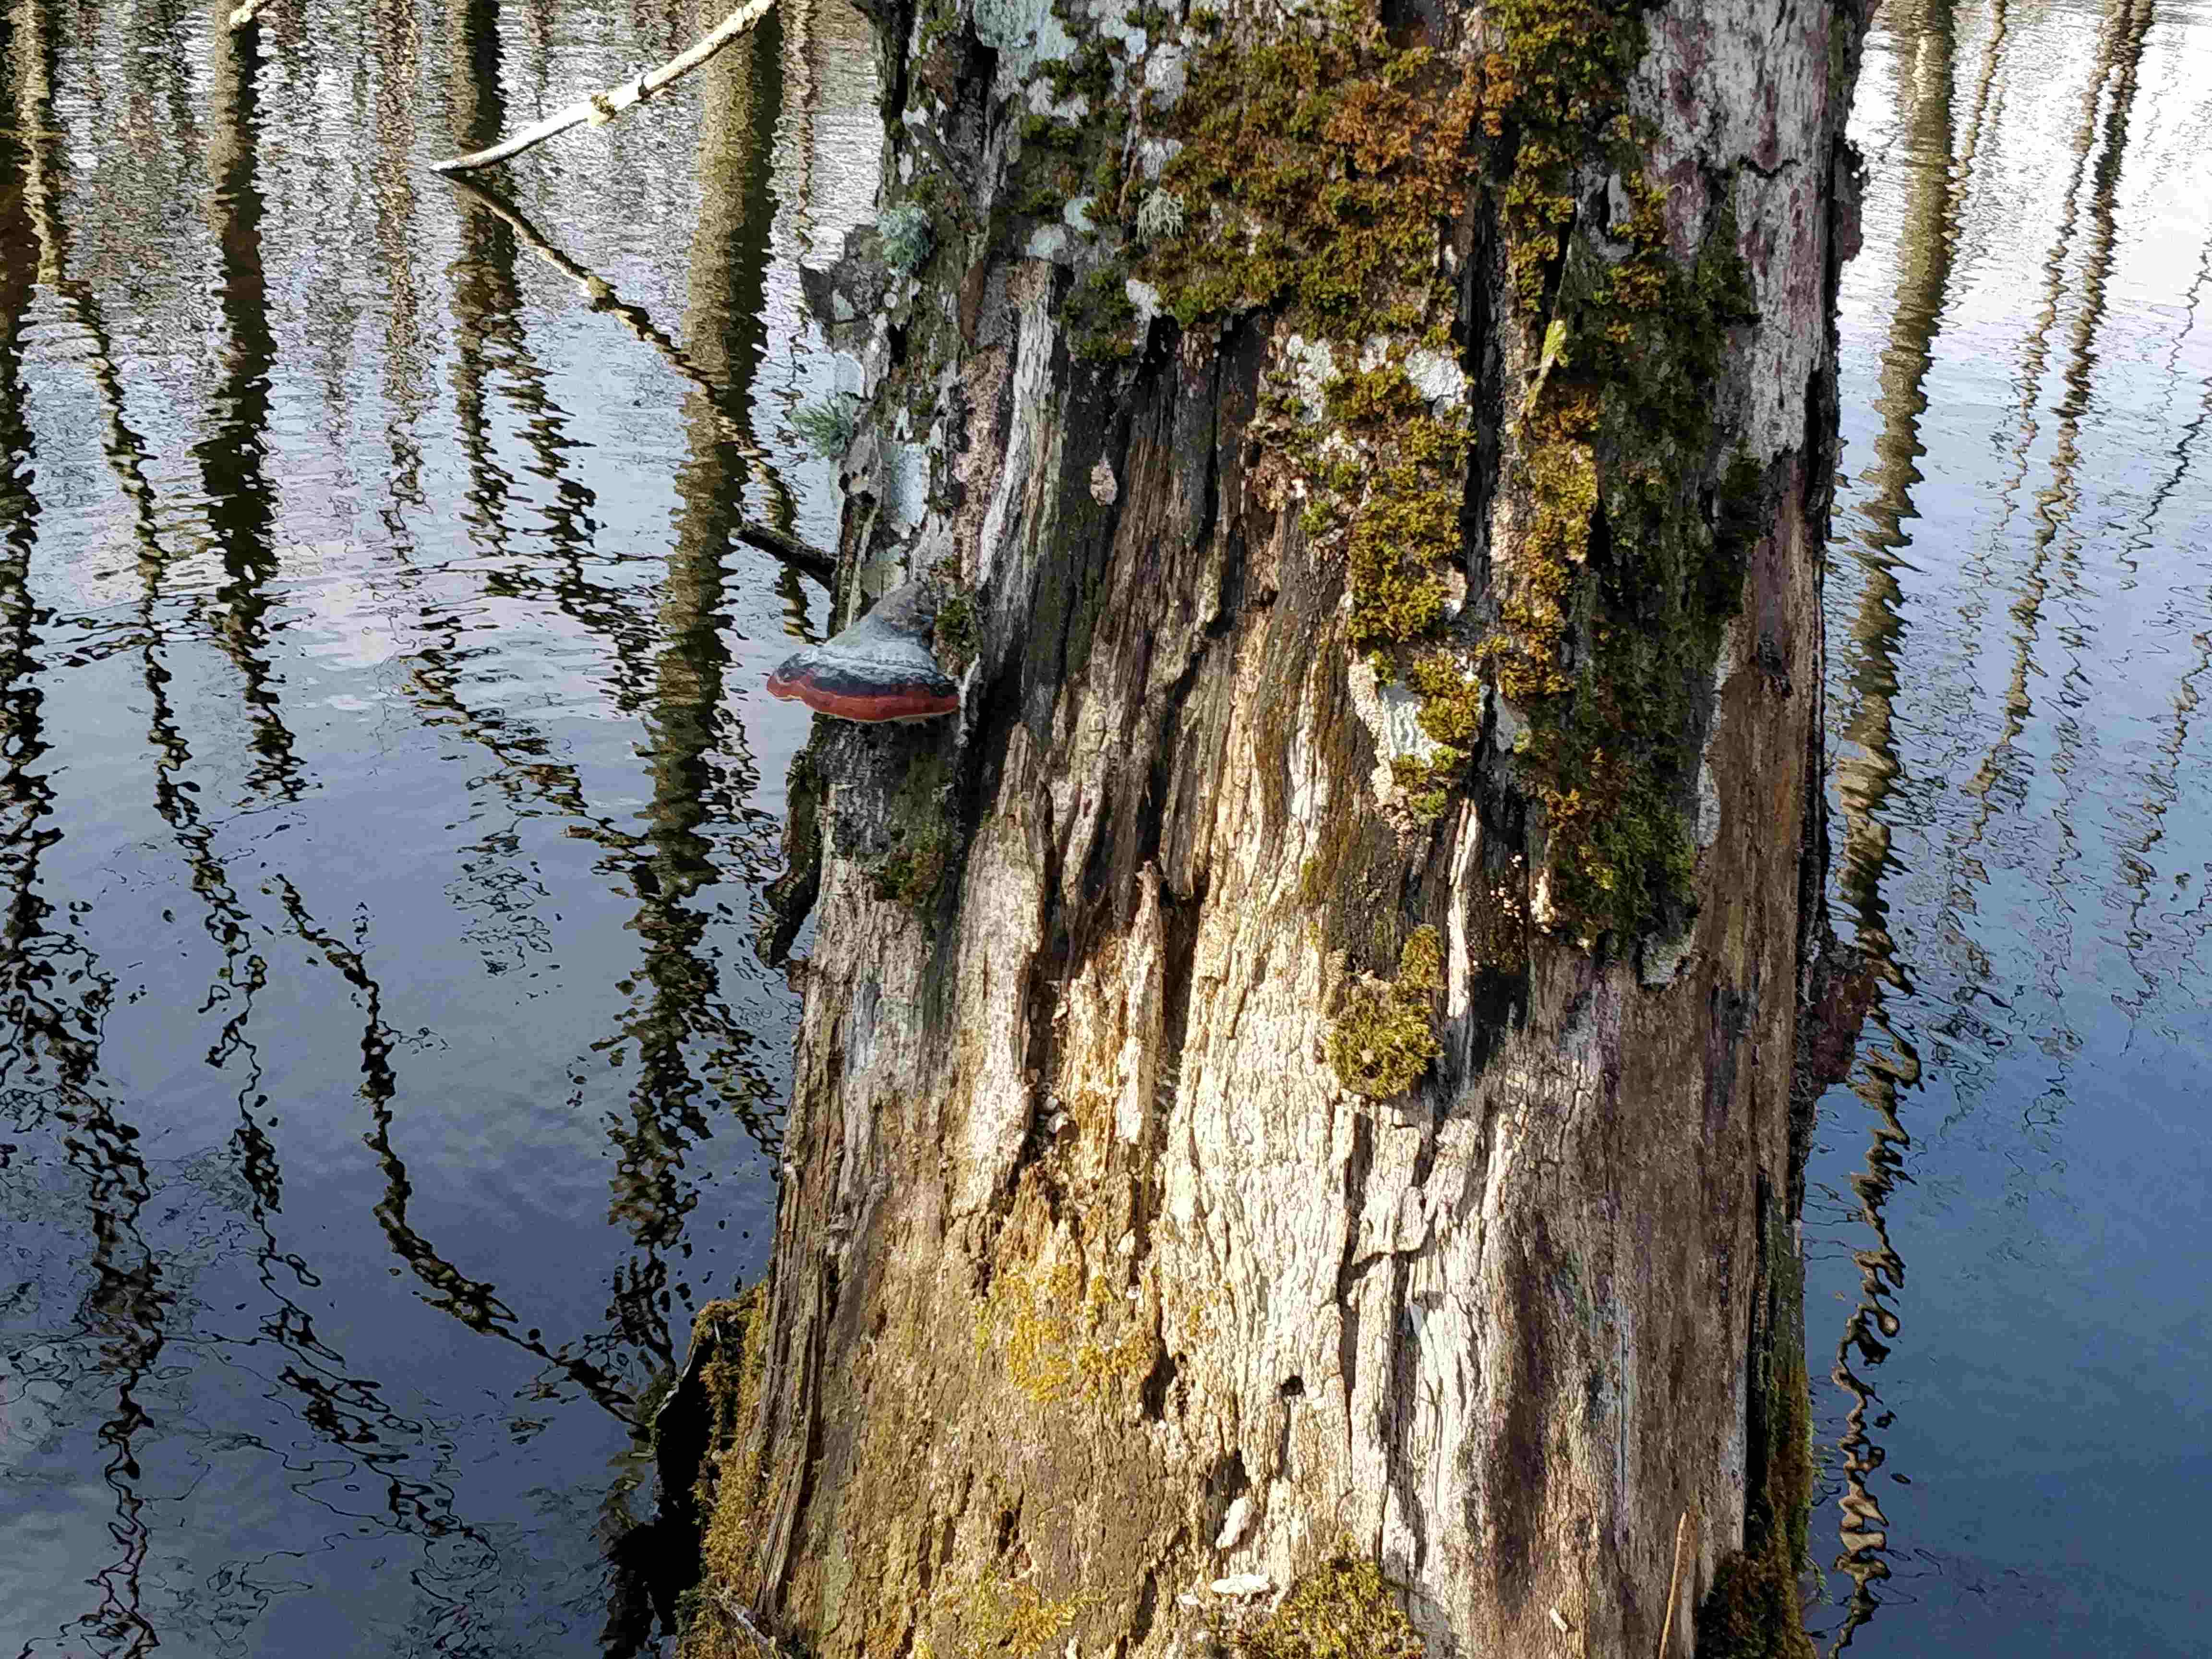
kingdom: Fungi
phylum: Basidiomycota
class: Agaricomycetes
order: Polyporales
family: Fomitopsidaceae
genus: Fomitopsis
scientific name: Fomitopsis pinicola
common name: randbæltet hovporesvamp
